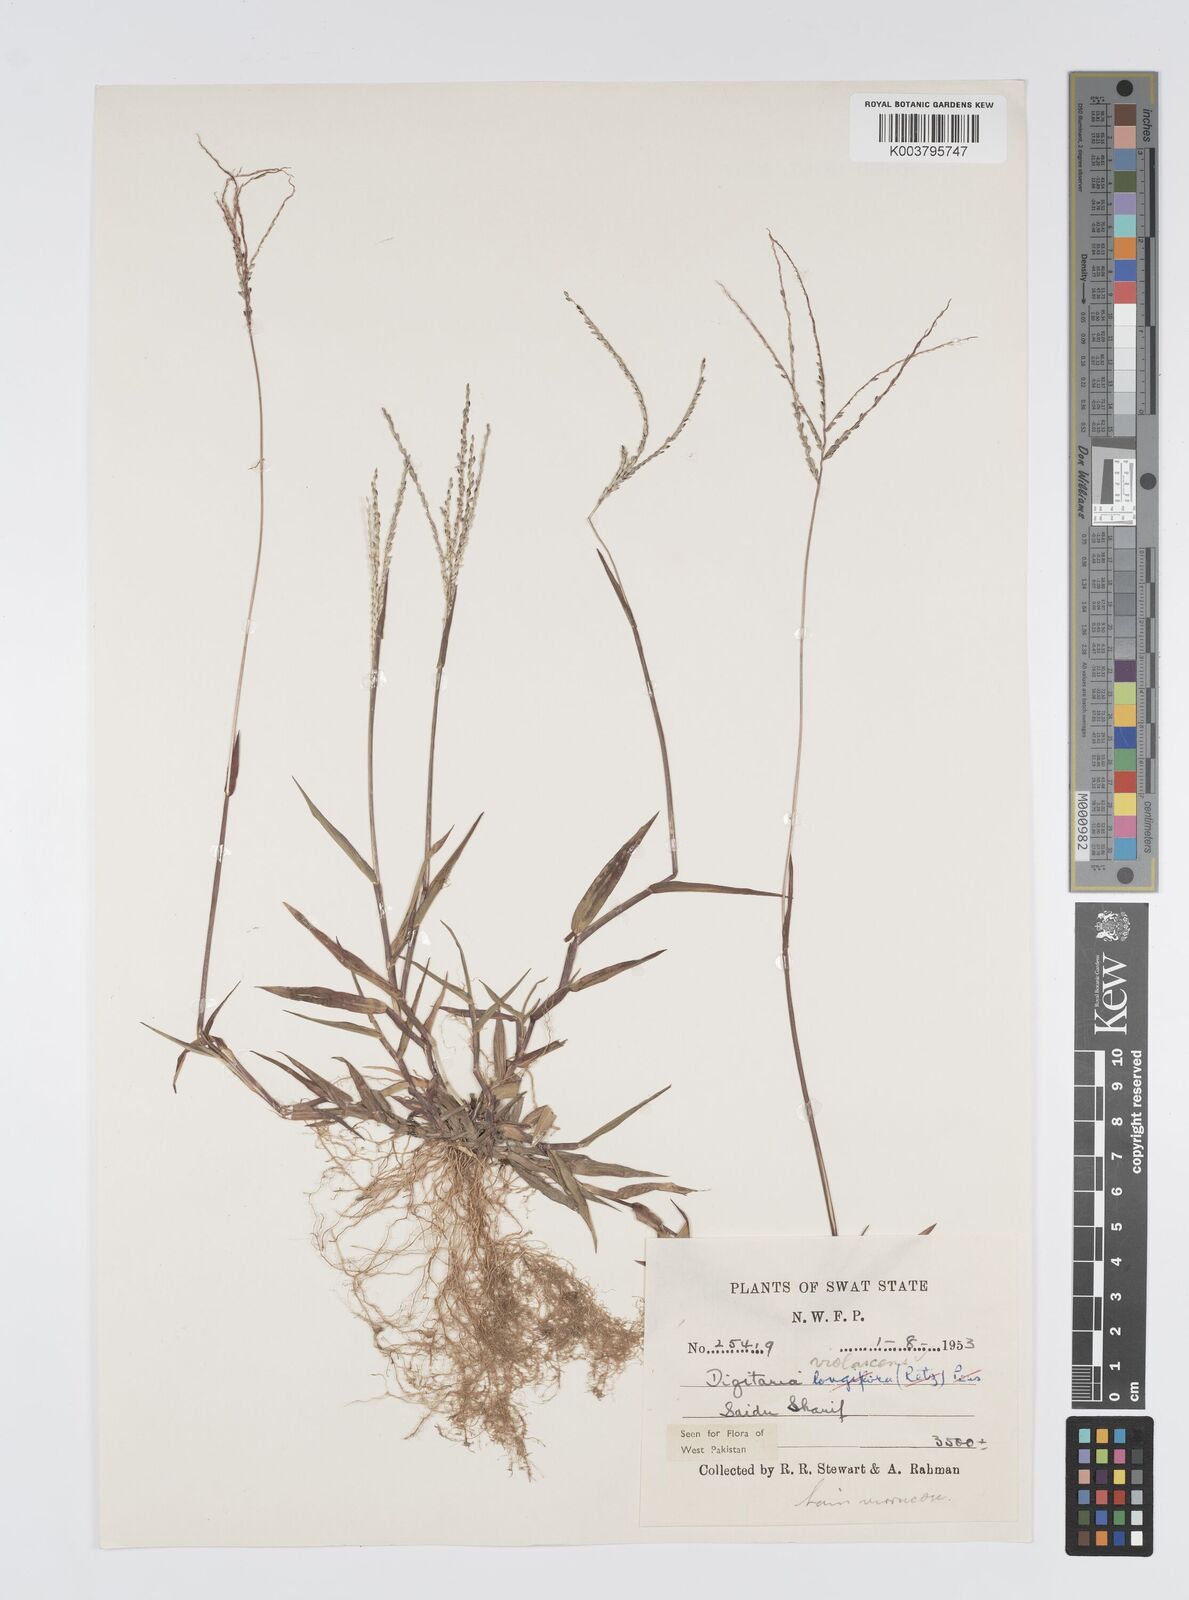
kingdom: Plantae
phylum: Tracheophyta
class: Liliopsida
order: Poales
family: Poaceae
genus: Digitaria
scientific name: Digitaria violascens
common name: Violet crabgrass
